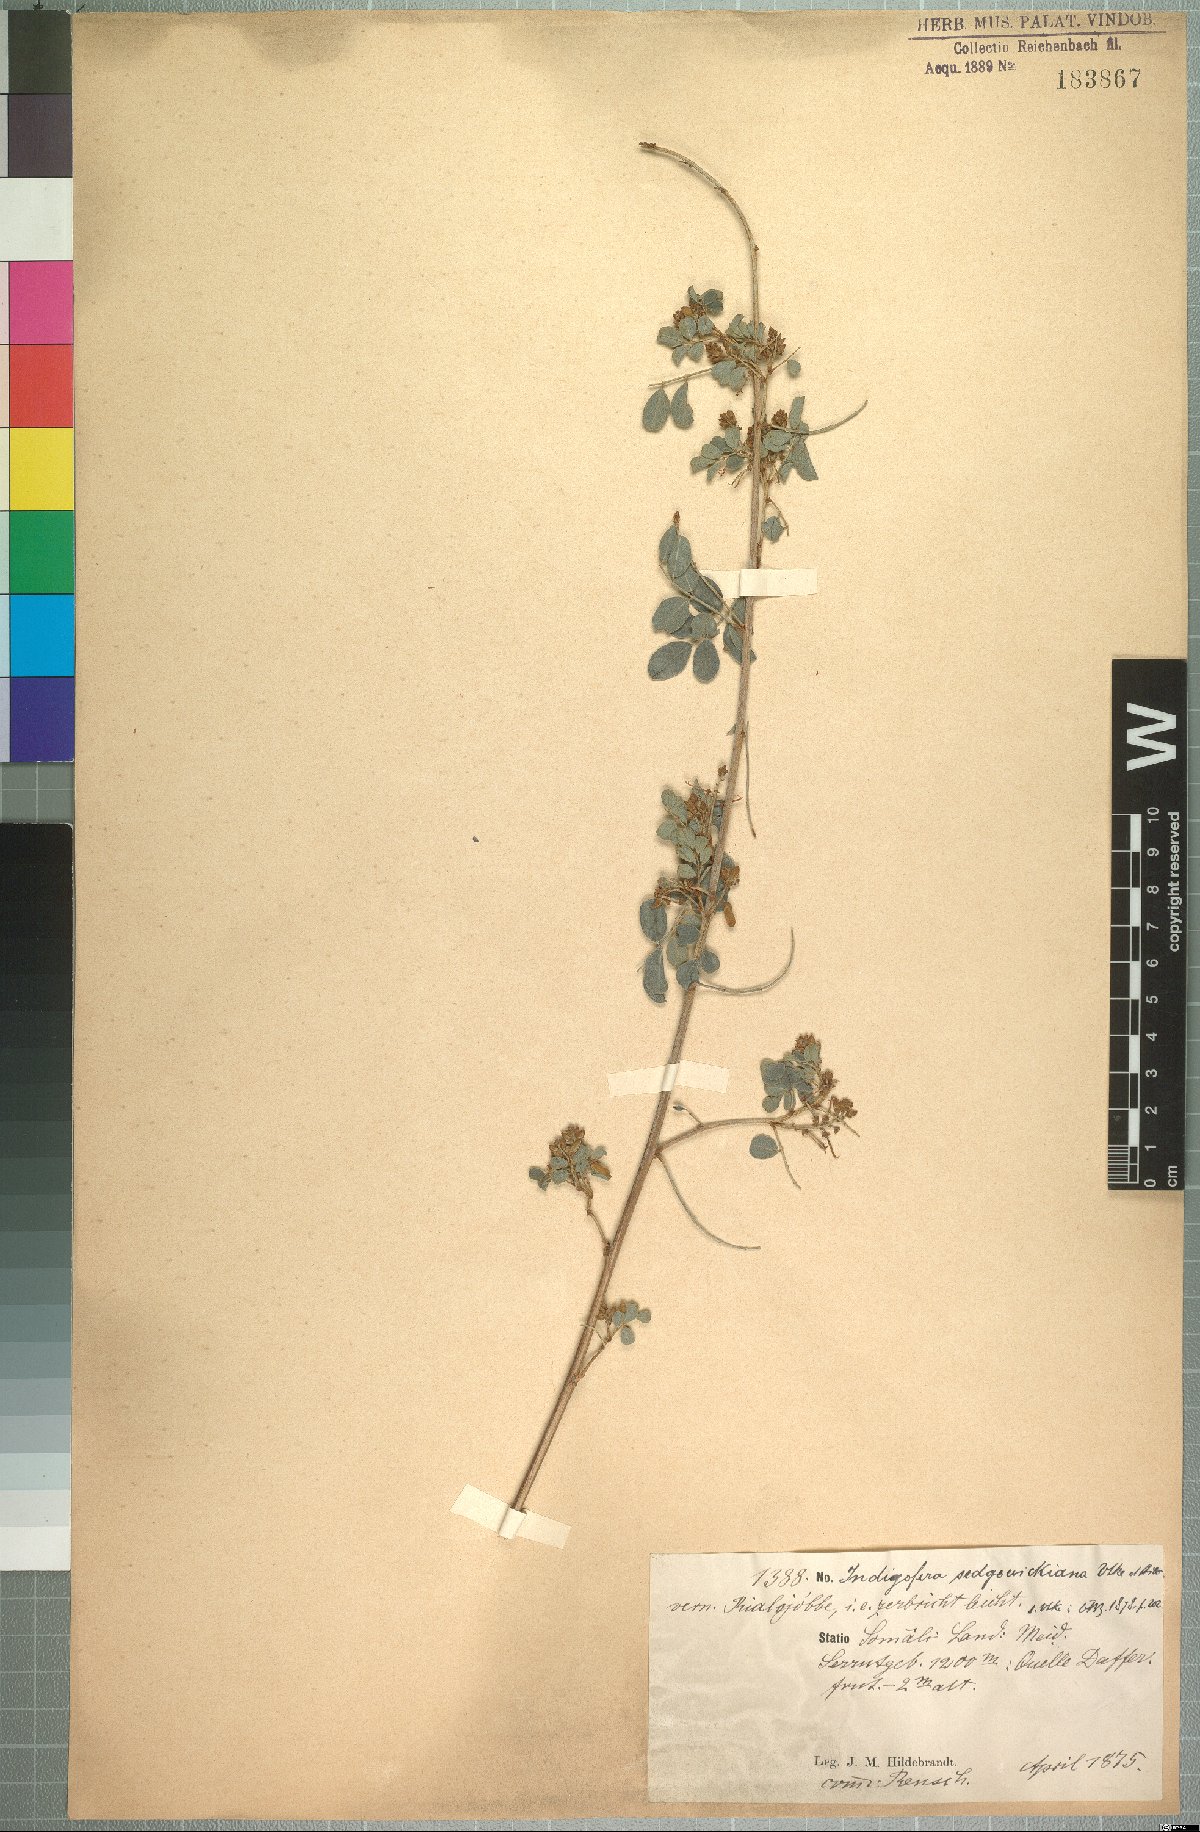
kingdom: Plantae
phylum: Tracheophyta
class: Magnoliopsida
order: Fabales
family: Fabaceae
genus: Indigofera
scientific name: Indigofera sedgewickiana
